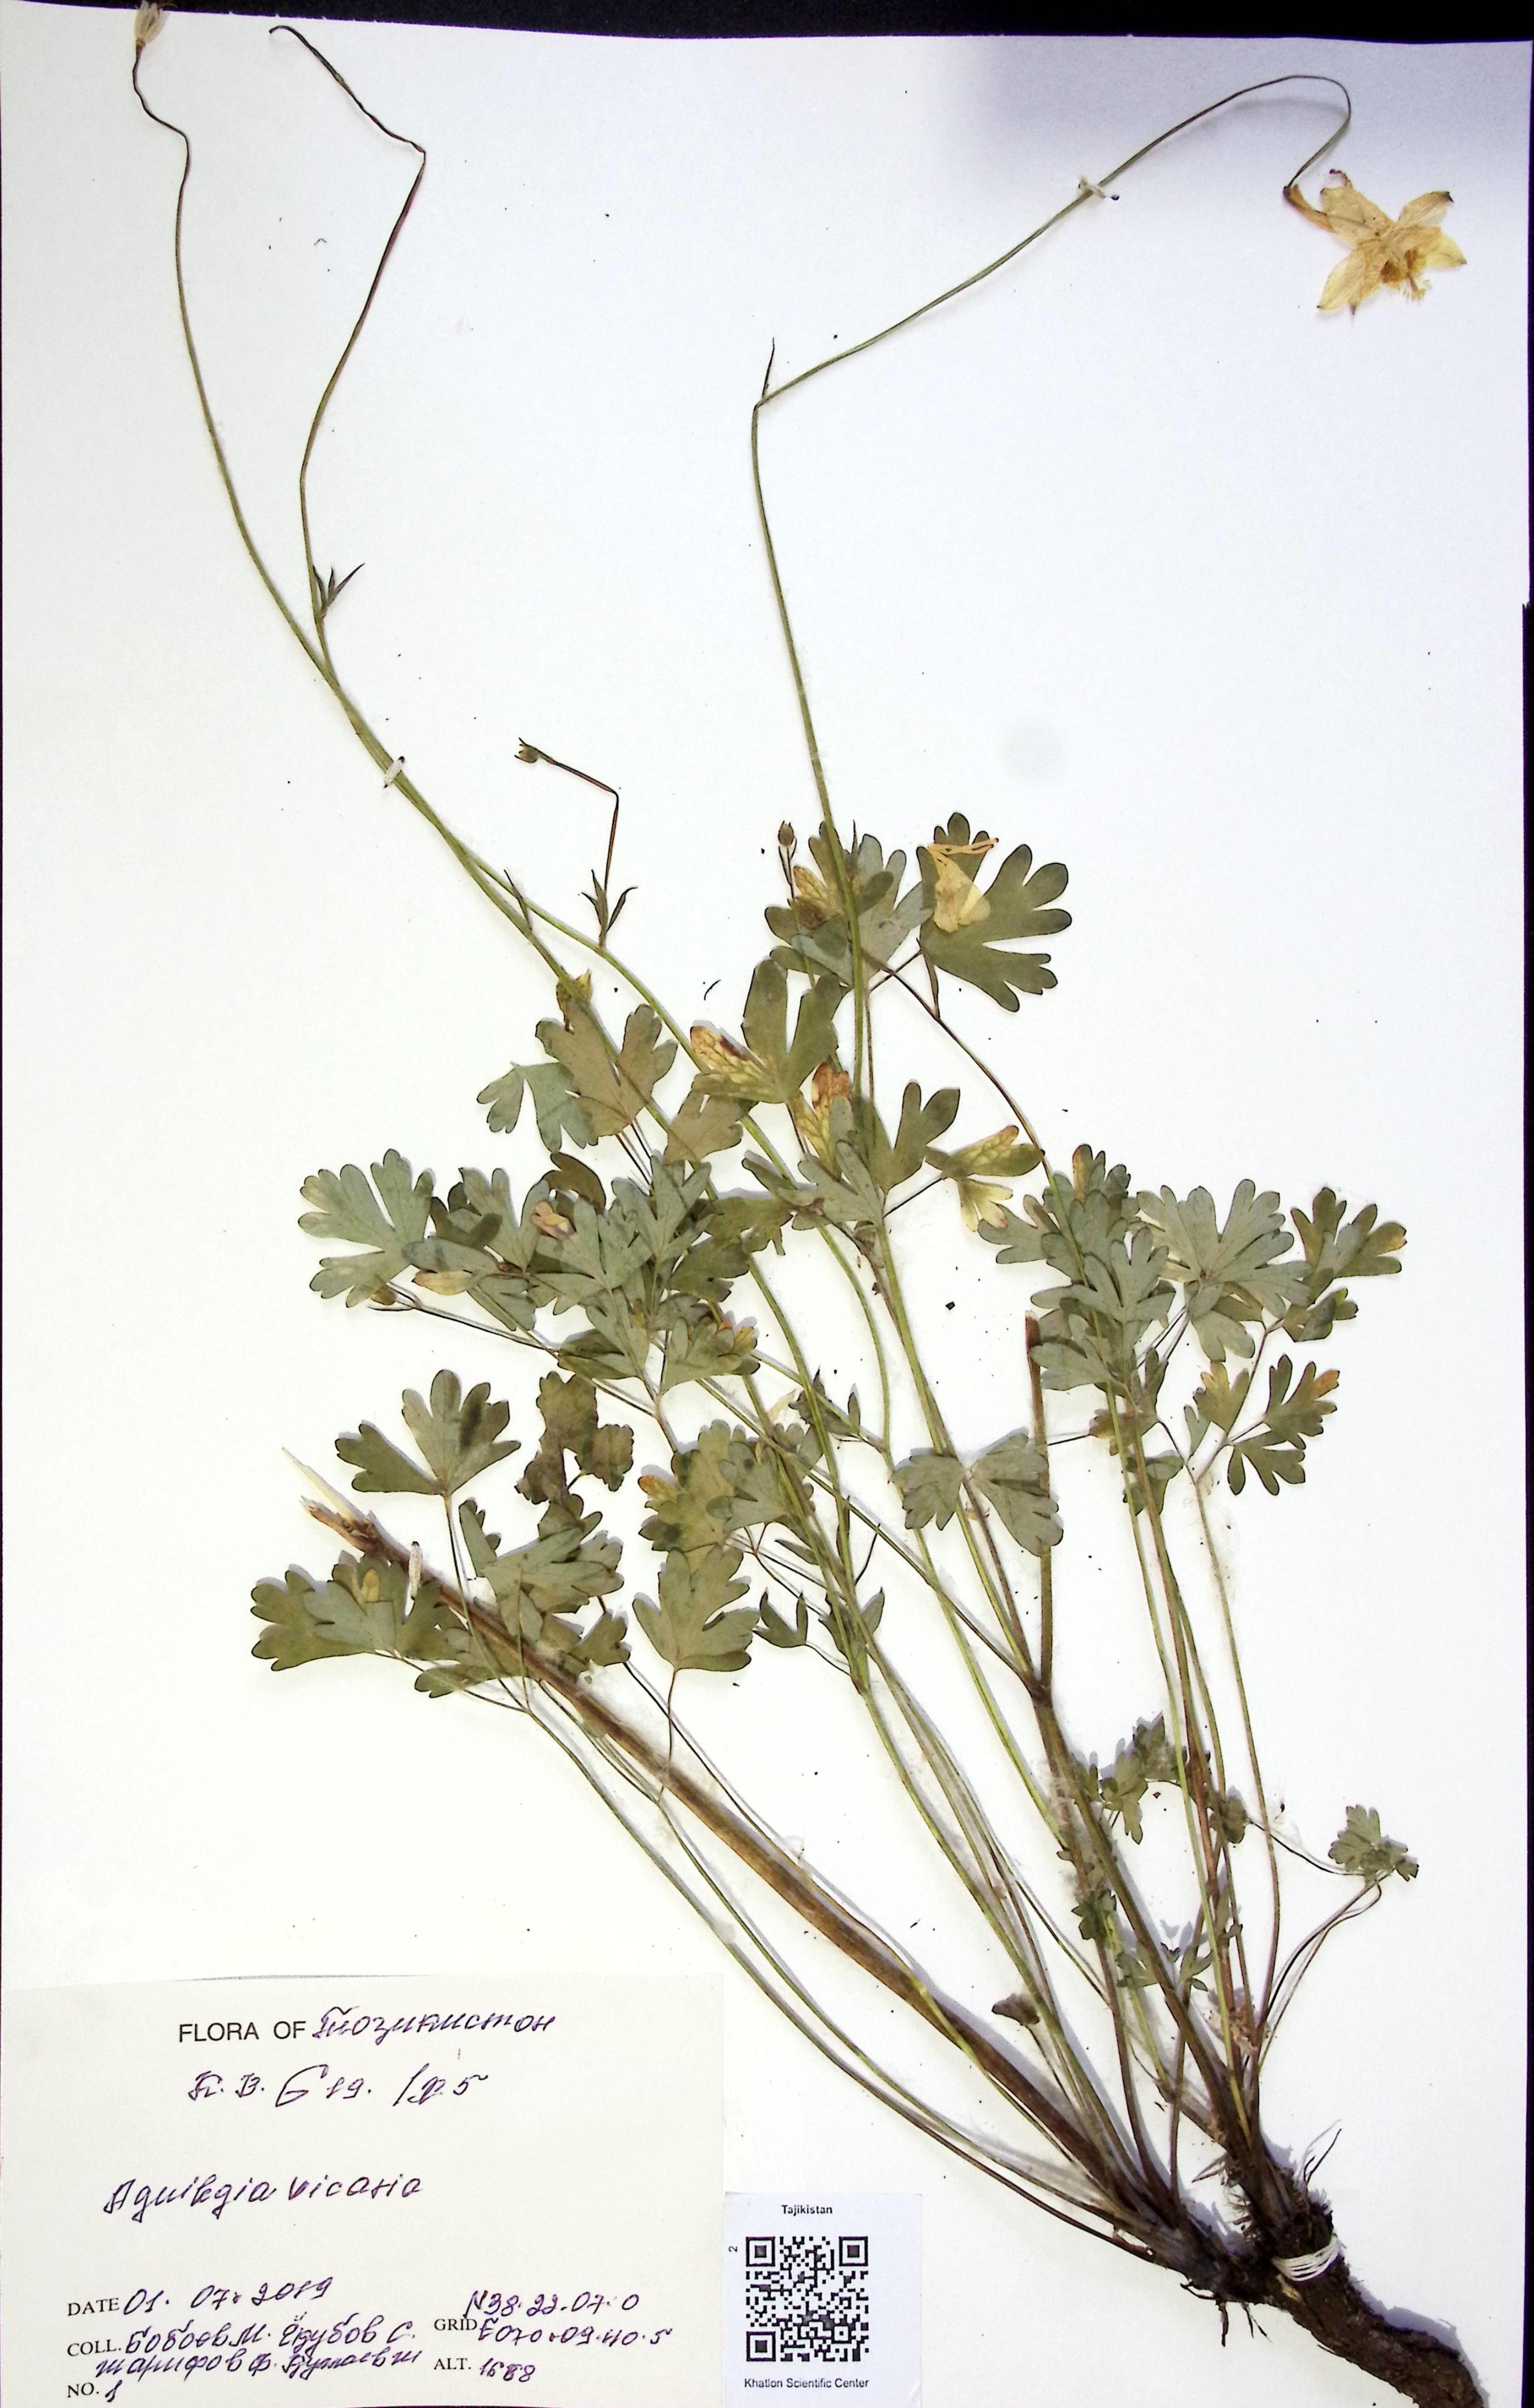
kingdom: Plantae
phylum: Tracheophyta
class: Magnoliopsida
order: Ranunculales
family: Ranunculaceae
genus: Aquilegia
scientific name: Aquilegia vicaria
